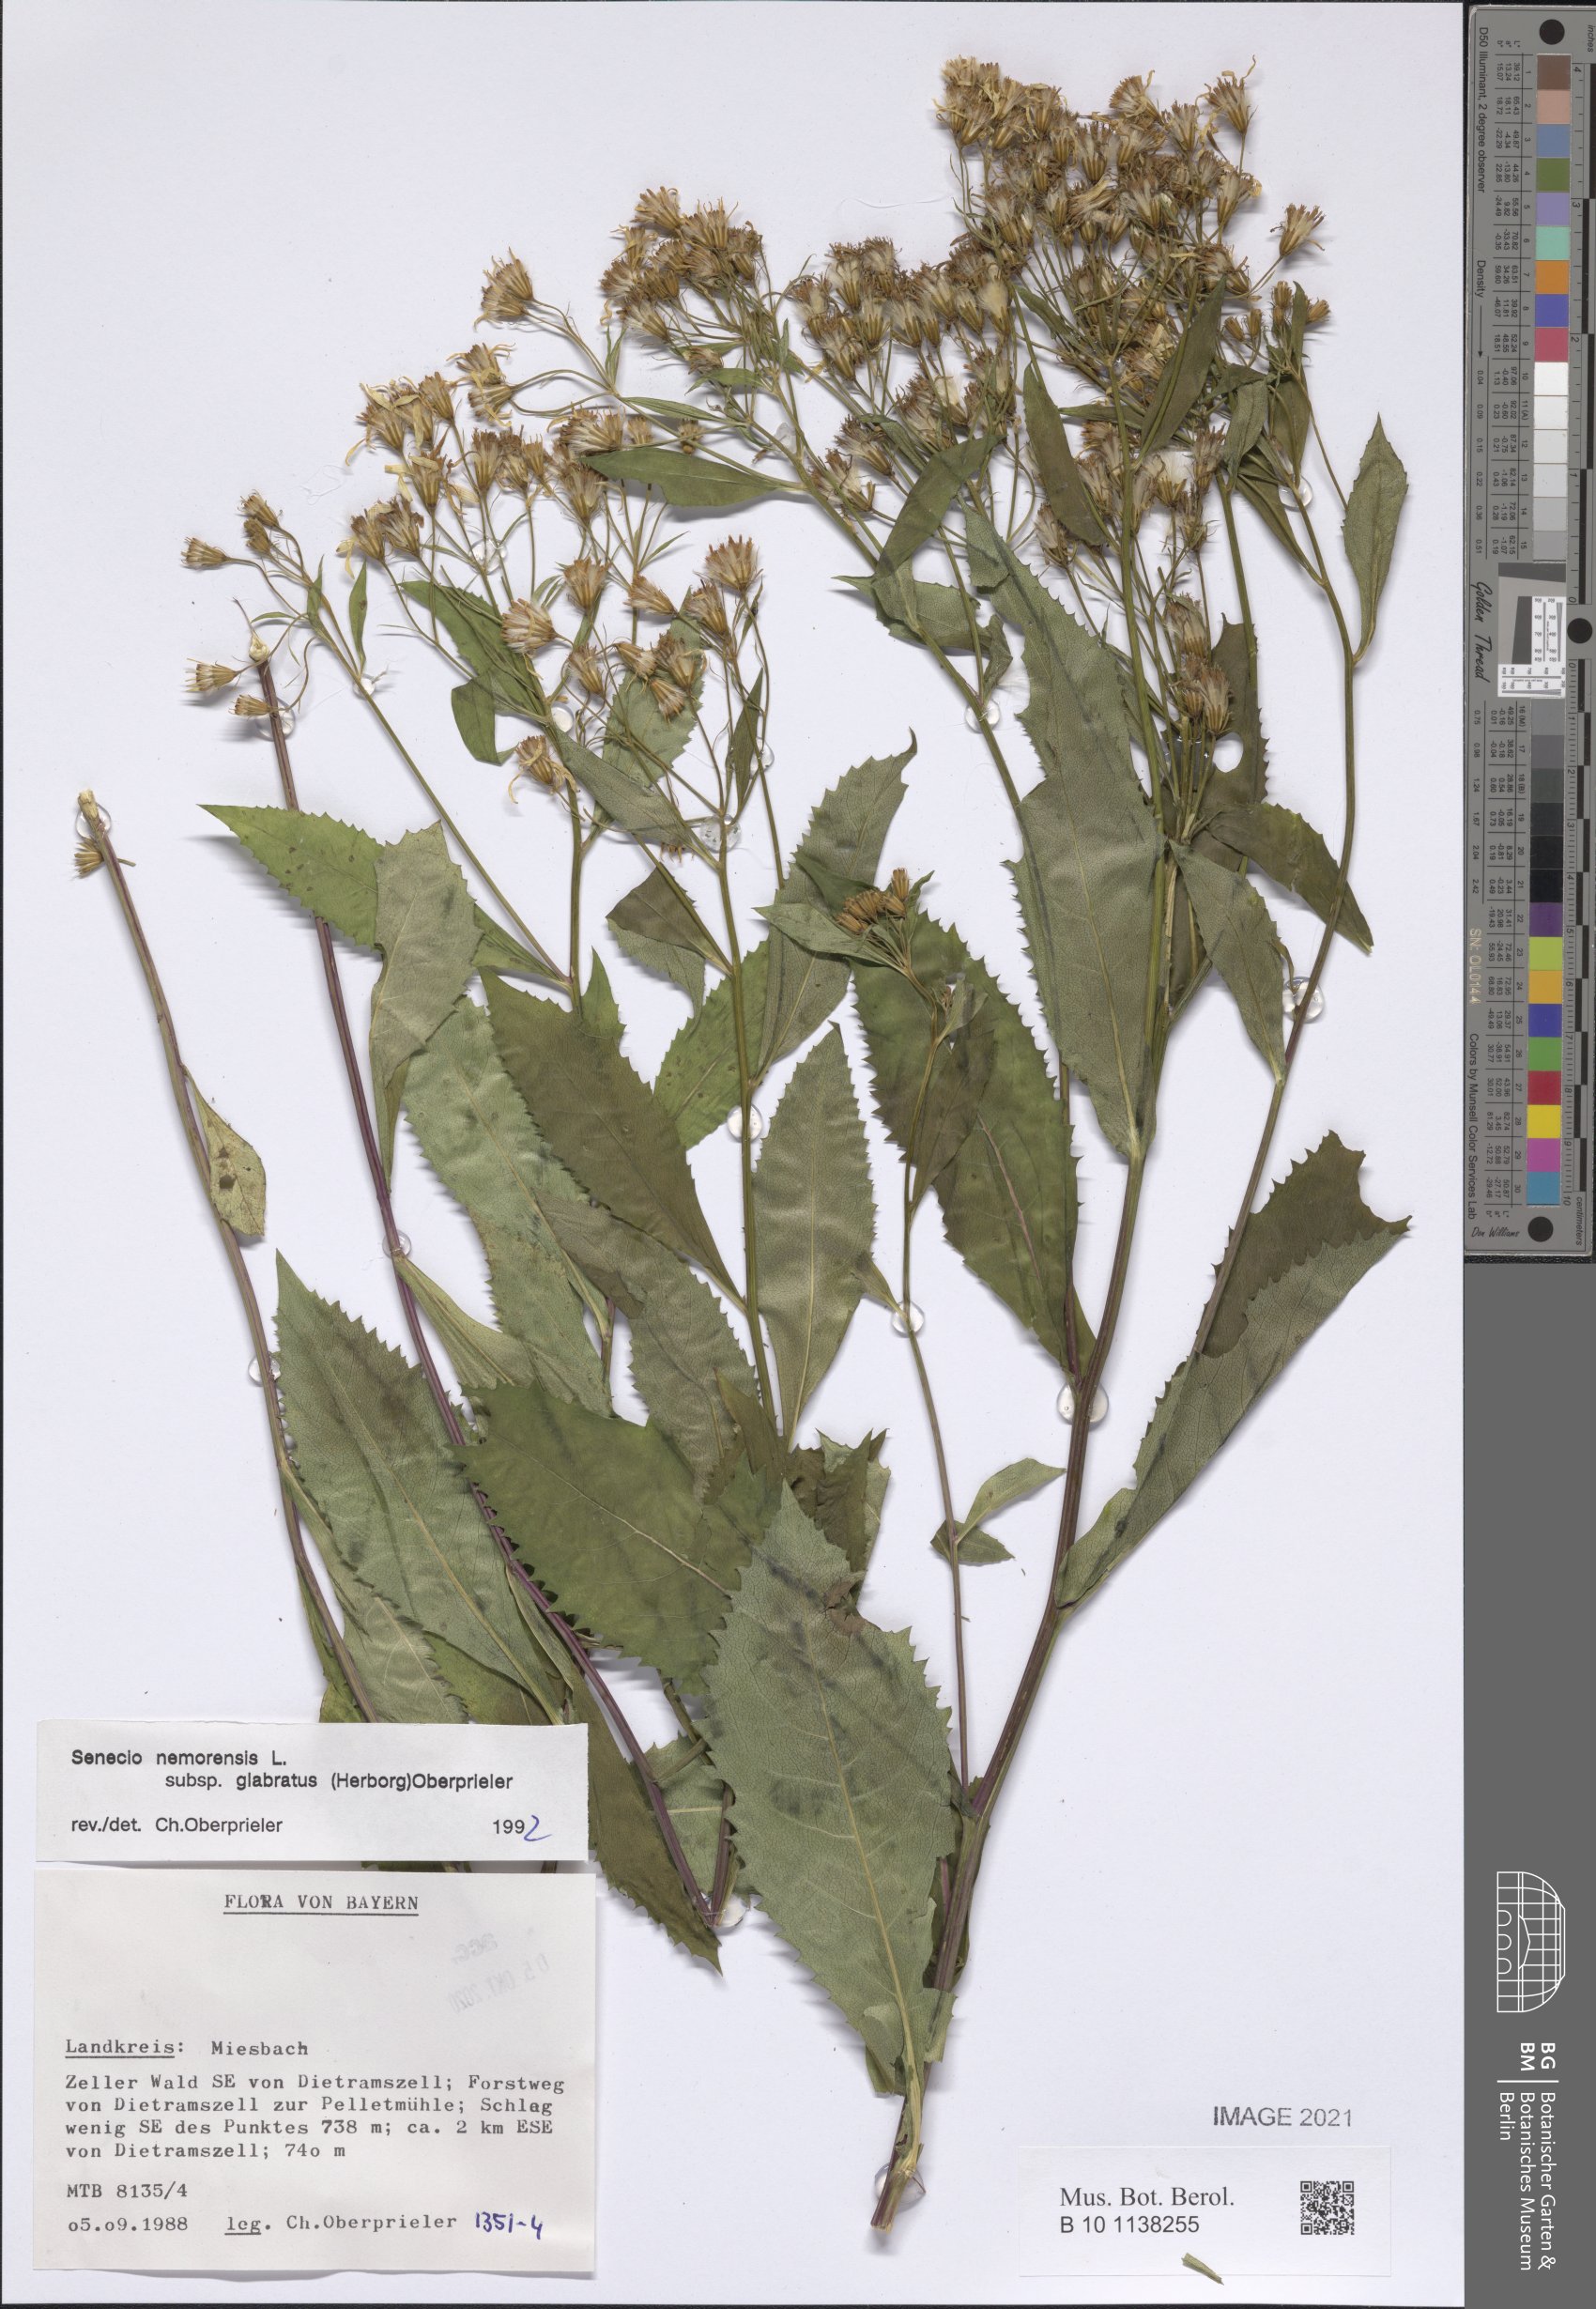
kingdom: Plantae
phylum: Tracheophyta
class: Magnoliopsida
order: Asterales
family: Asteraceae
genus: Senecio
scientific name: Senecio germanicus
